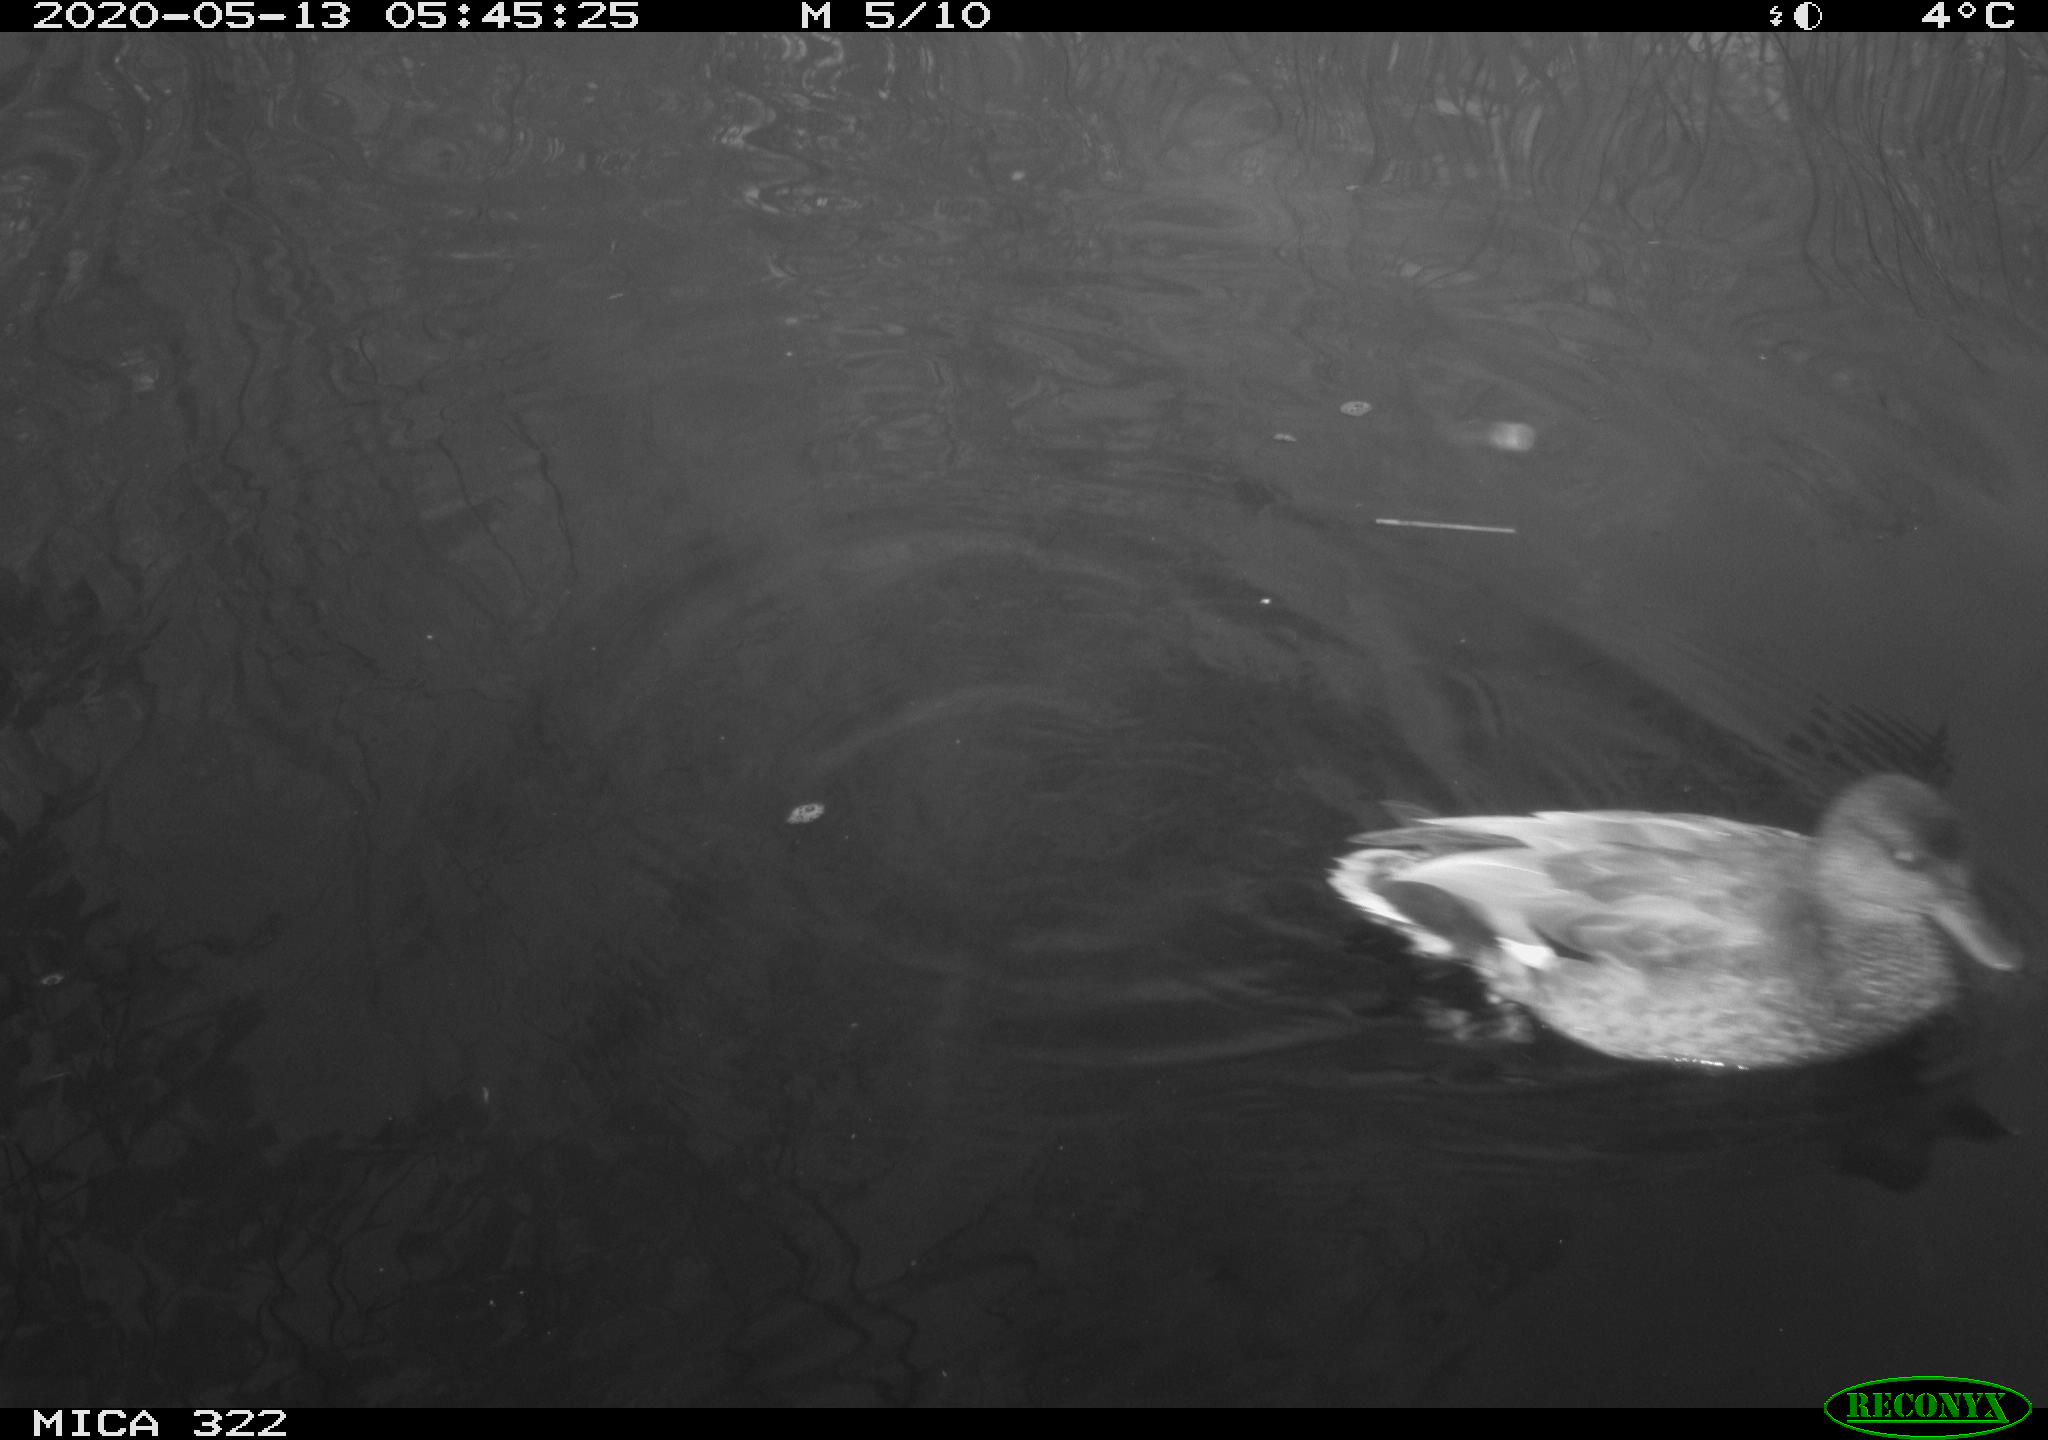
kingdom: Animalia
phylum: Chordata
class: Aves
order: Anseriformes
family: Anatidae
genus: Mareca
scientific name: Mareca strepera
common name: Gadwall
